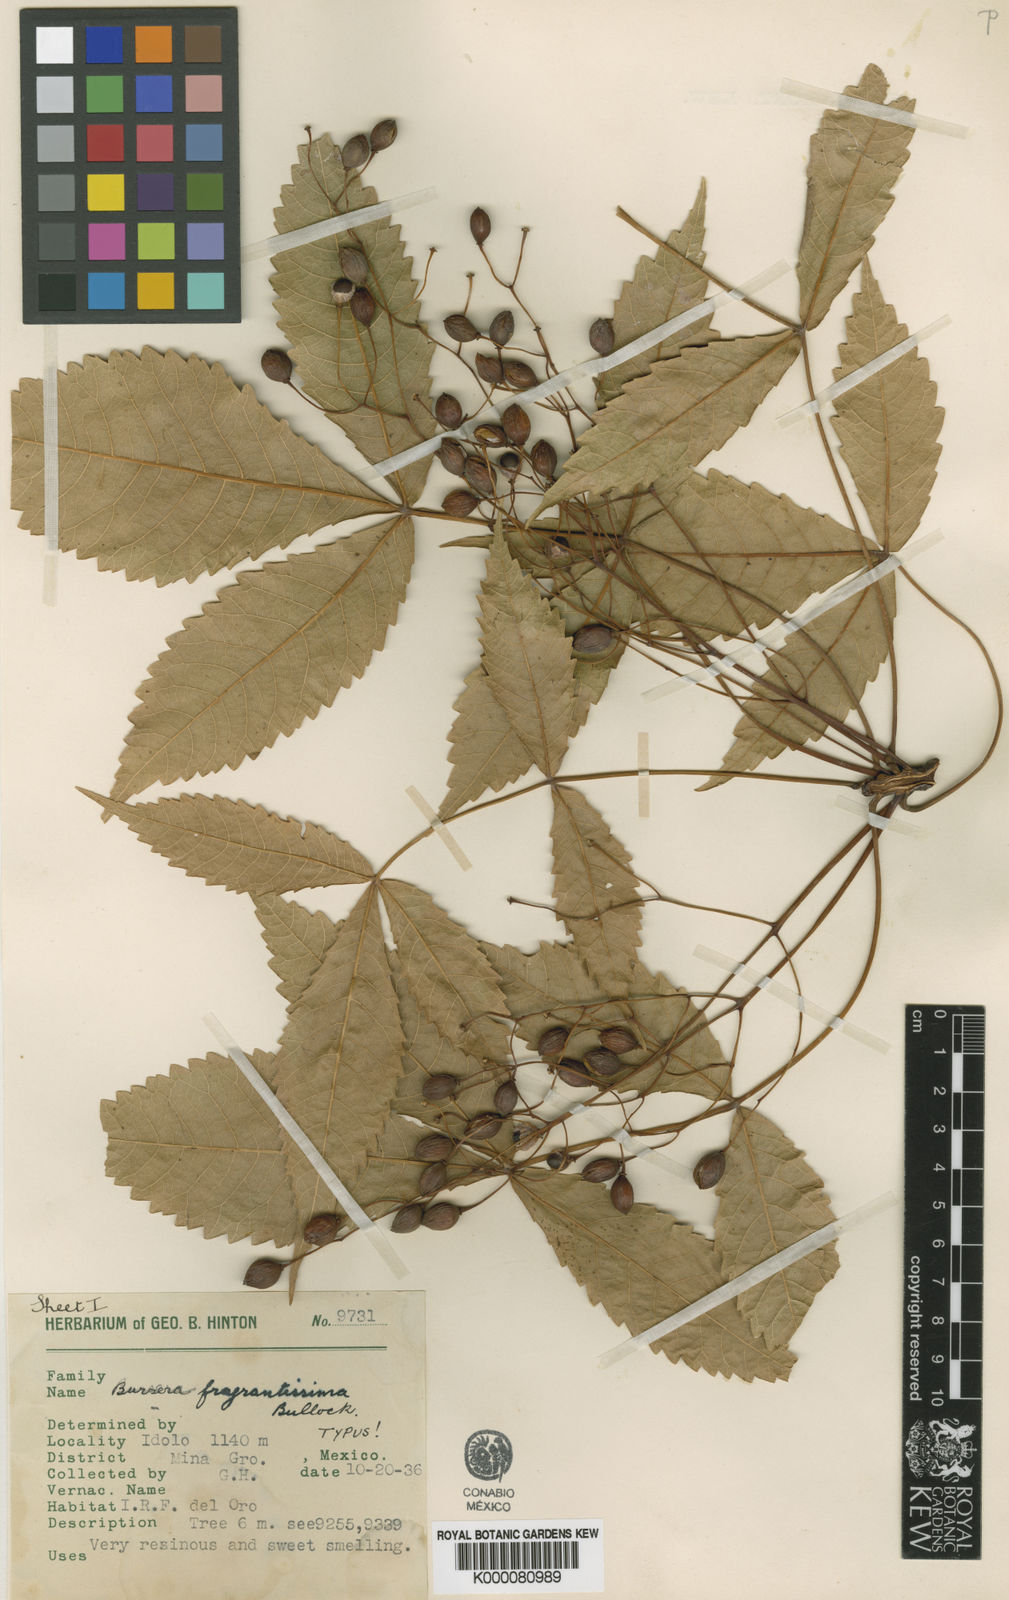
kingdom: Plantae
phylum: Tracheophyta
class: Magnoliopsida
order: Sapindales
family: Burseraceae
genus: Bursera
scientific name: Bursera fragrantissima
